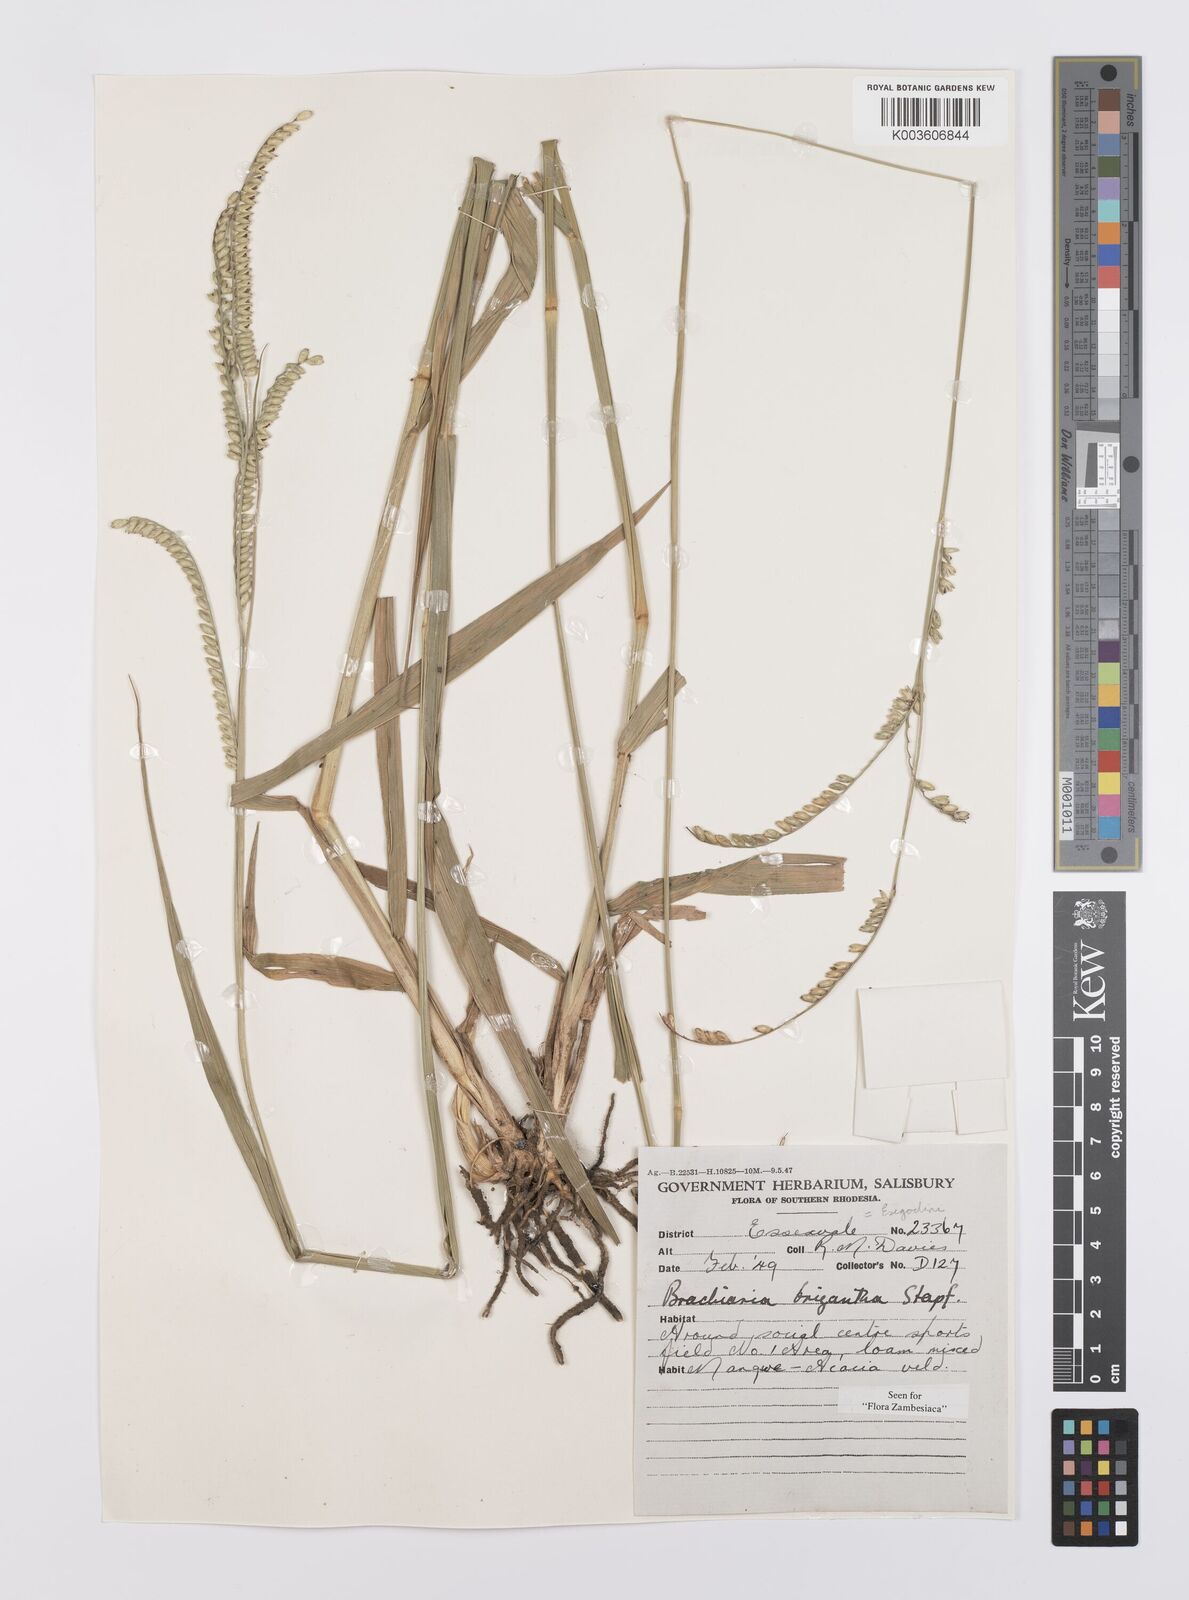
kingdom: Plantae
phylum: Tracheophyta
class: Liliopsida
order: Poales
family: Poaceae
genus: Urochloa
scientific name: Urochloa brizantha
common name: Palisade signalgrass
